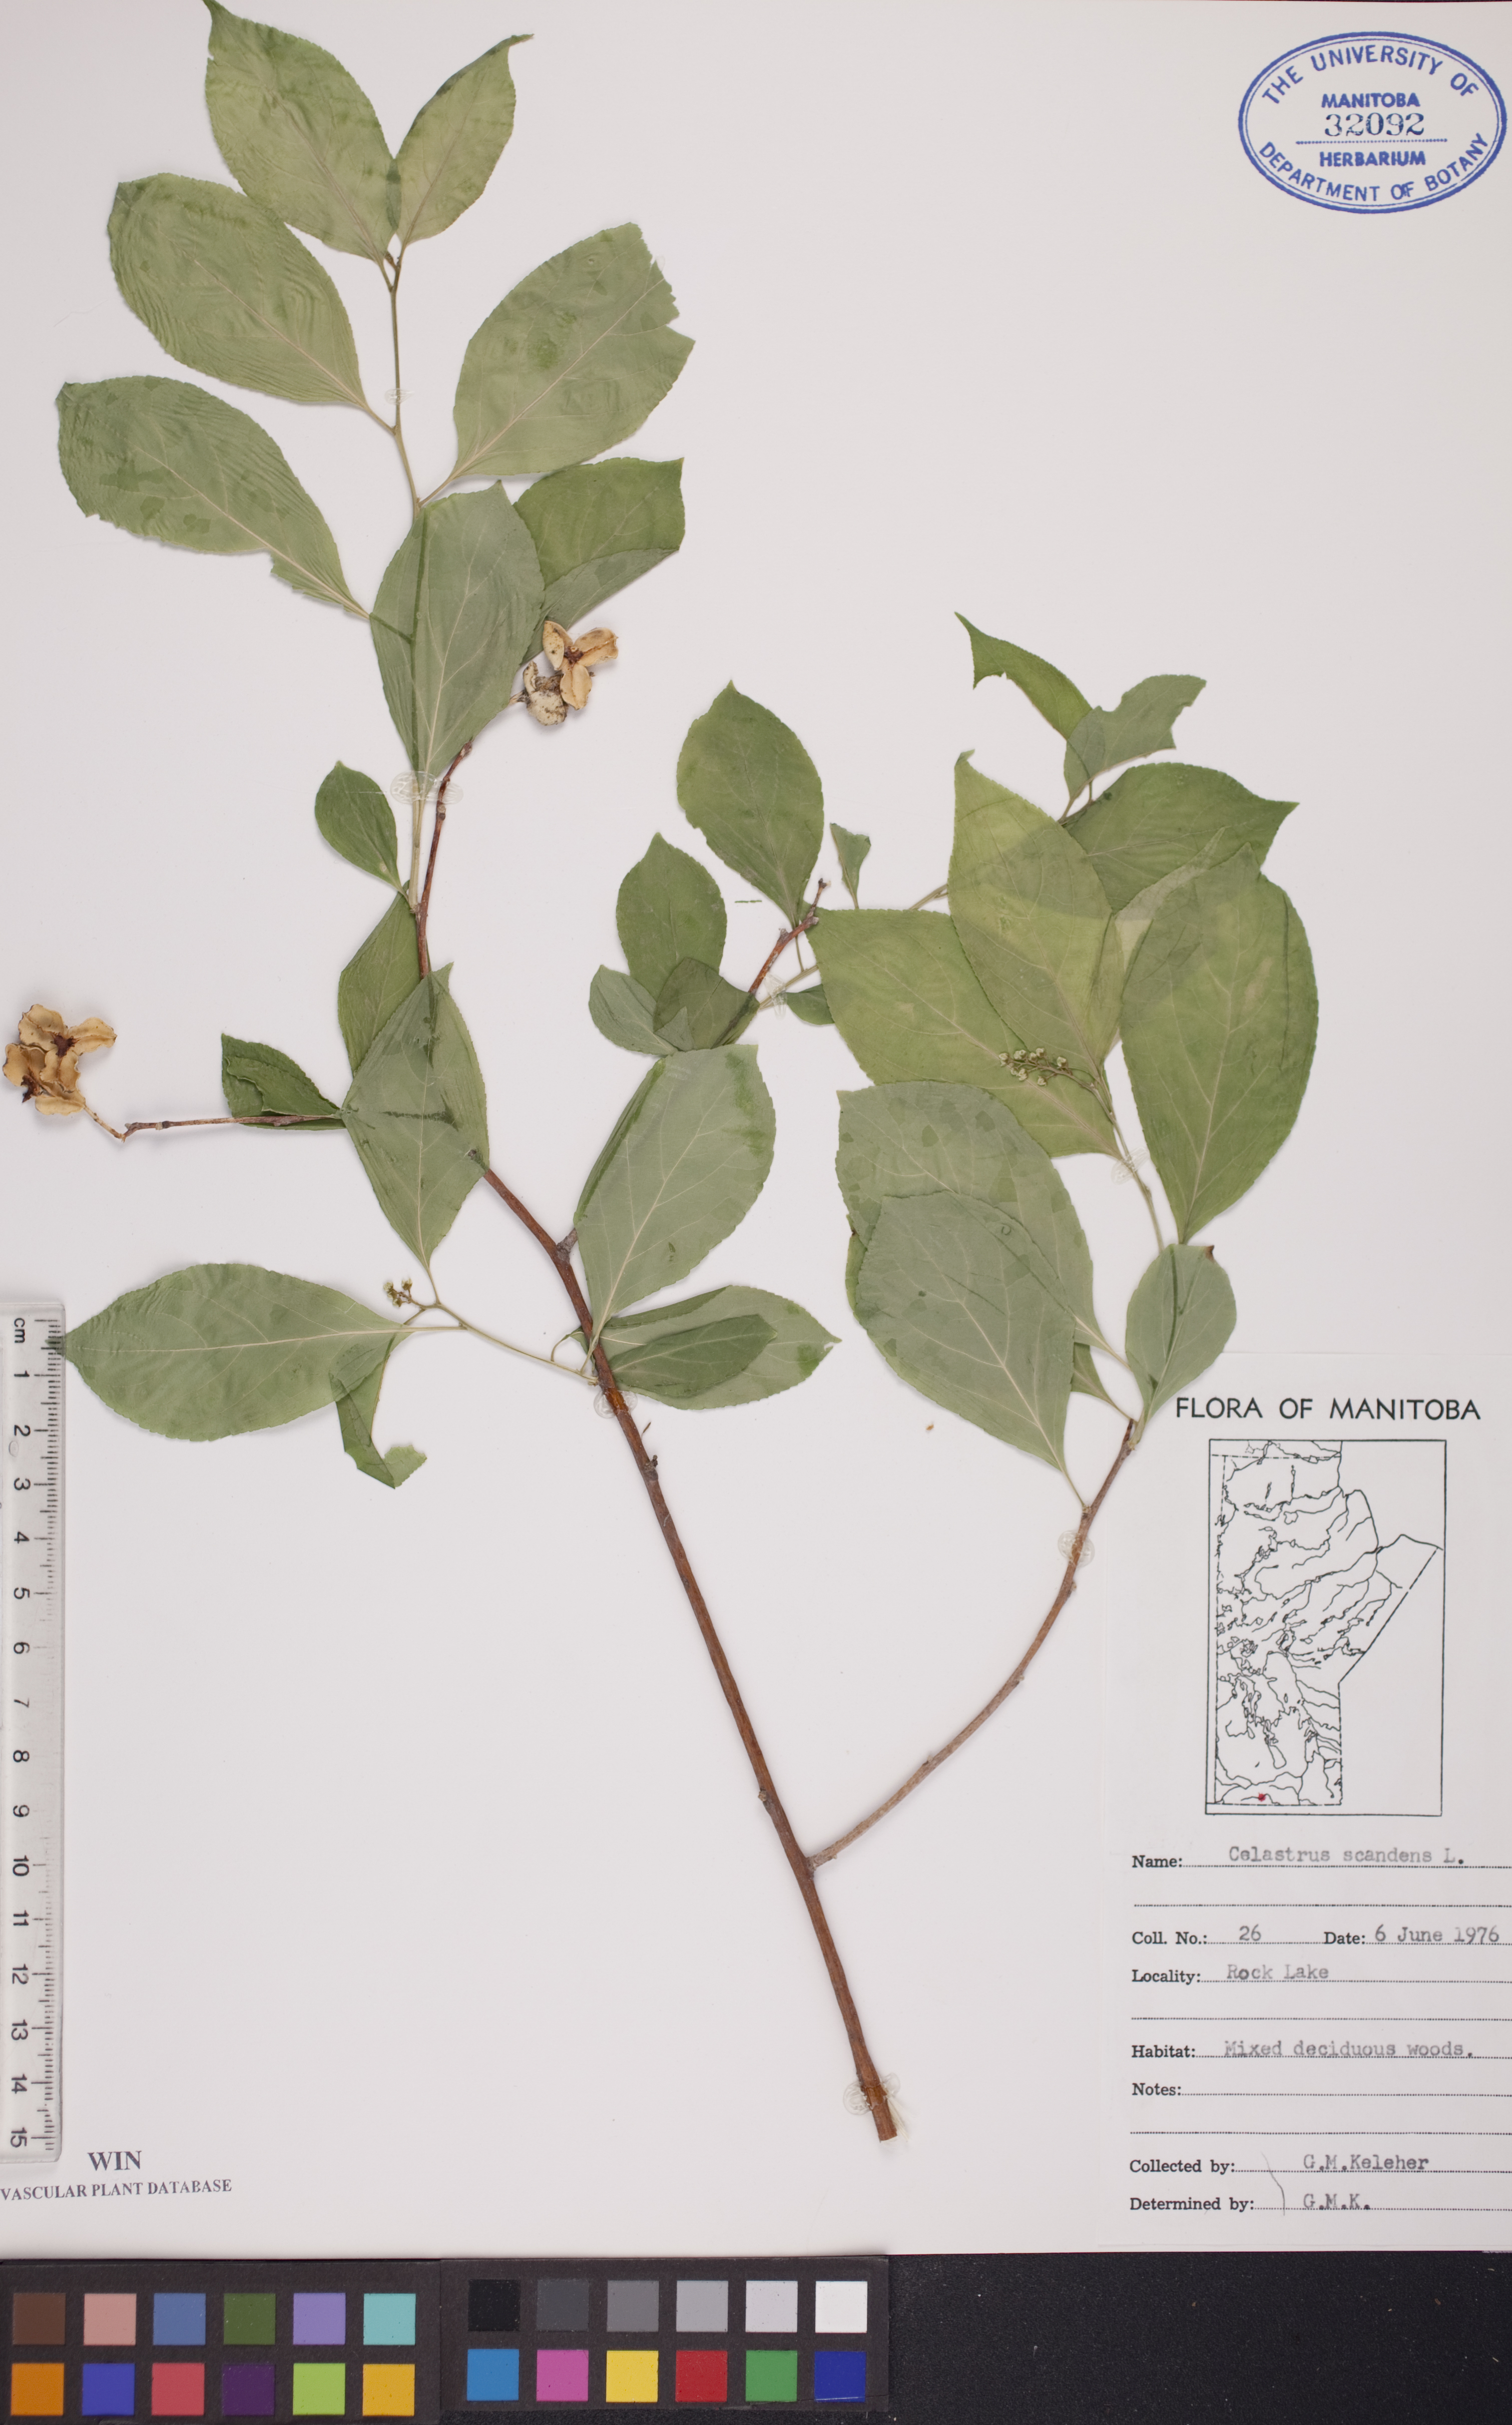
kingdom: Plantae
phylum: Tracheophyta
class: Magnoliopsida
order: Celastrales
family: Celastraceae
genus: Celastrus
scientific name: Celastrus scandens
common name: American bittersweet
